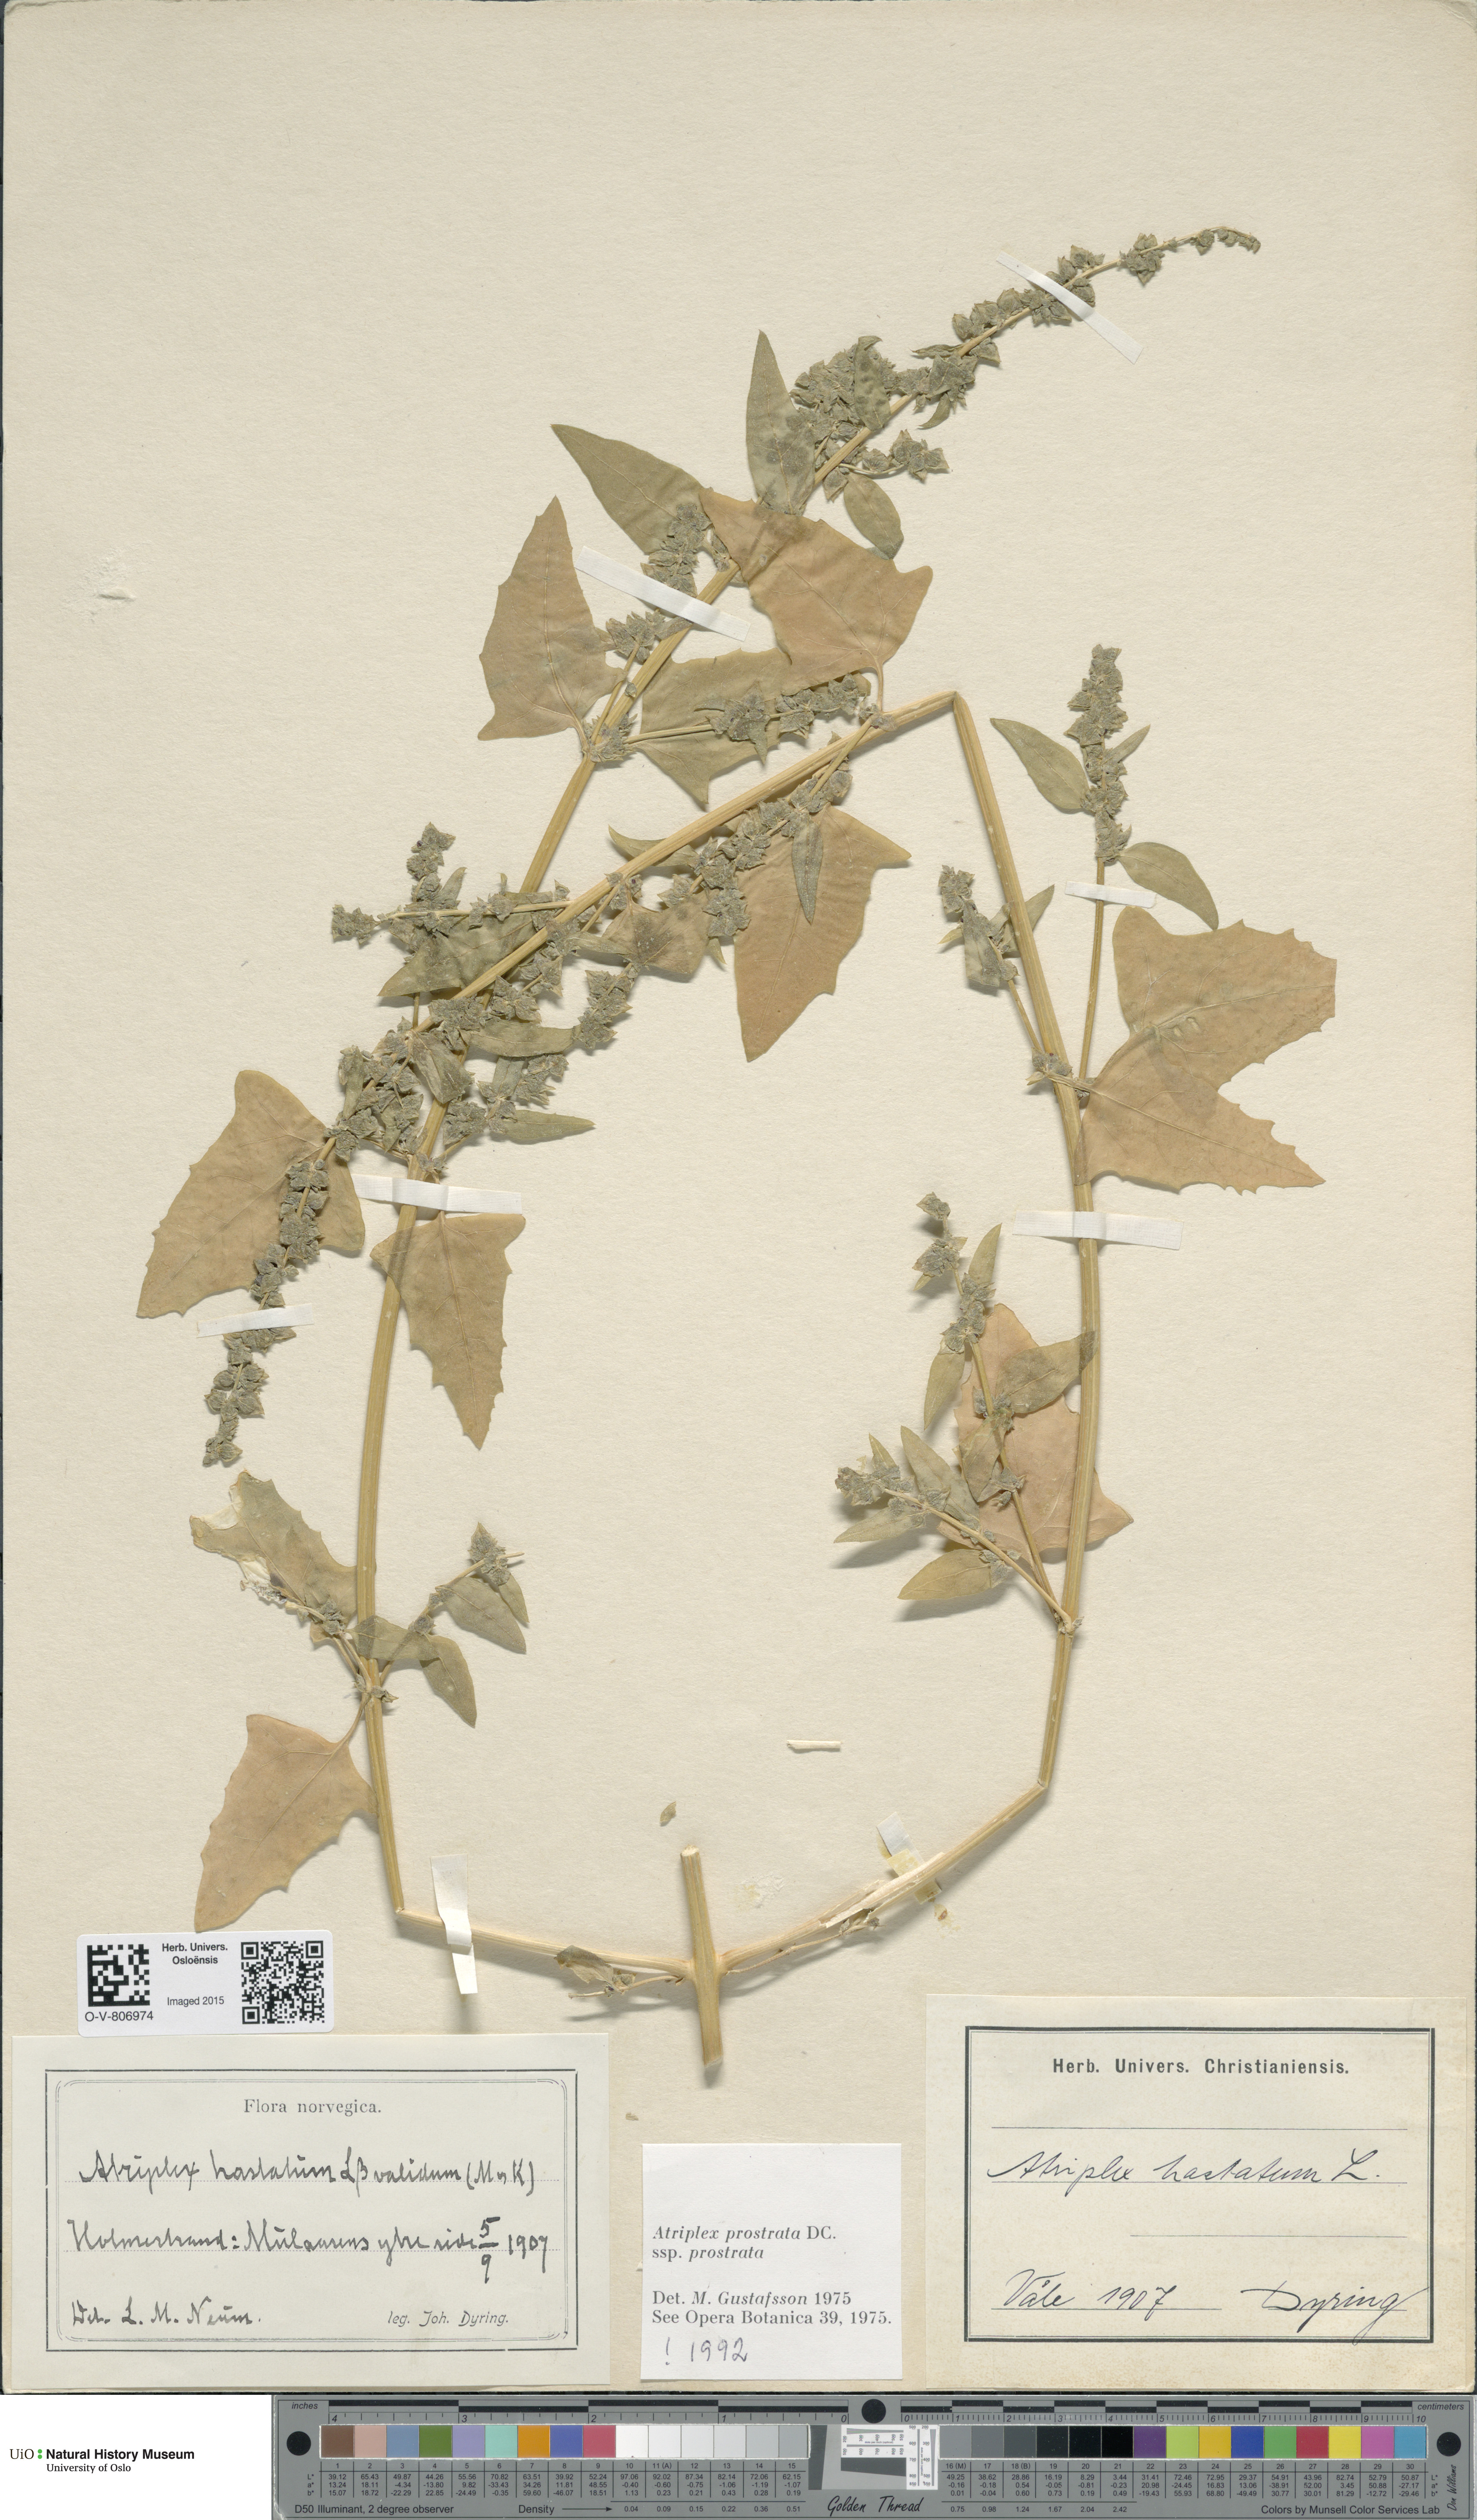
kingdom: Plantae
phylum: Tracheophyta
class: Magnoliopsida
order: Caryophyllales
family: Amaranthaceae
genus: Atriplex
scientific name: Atriplex prostrata
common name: Spear-leaved orache
